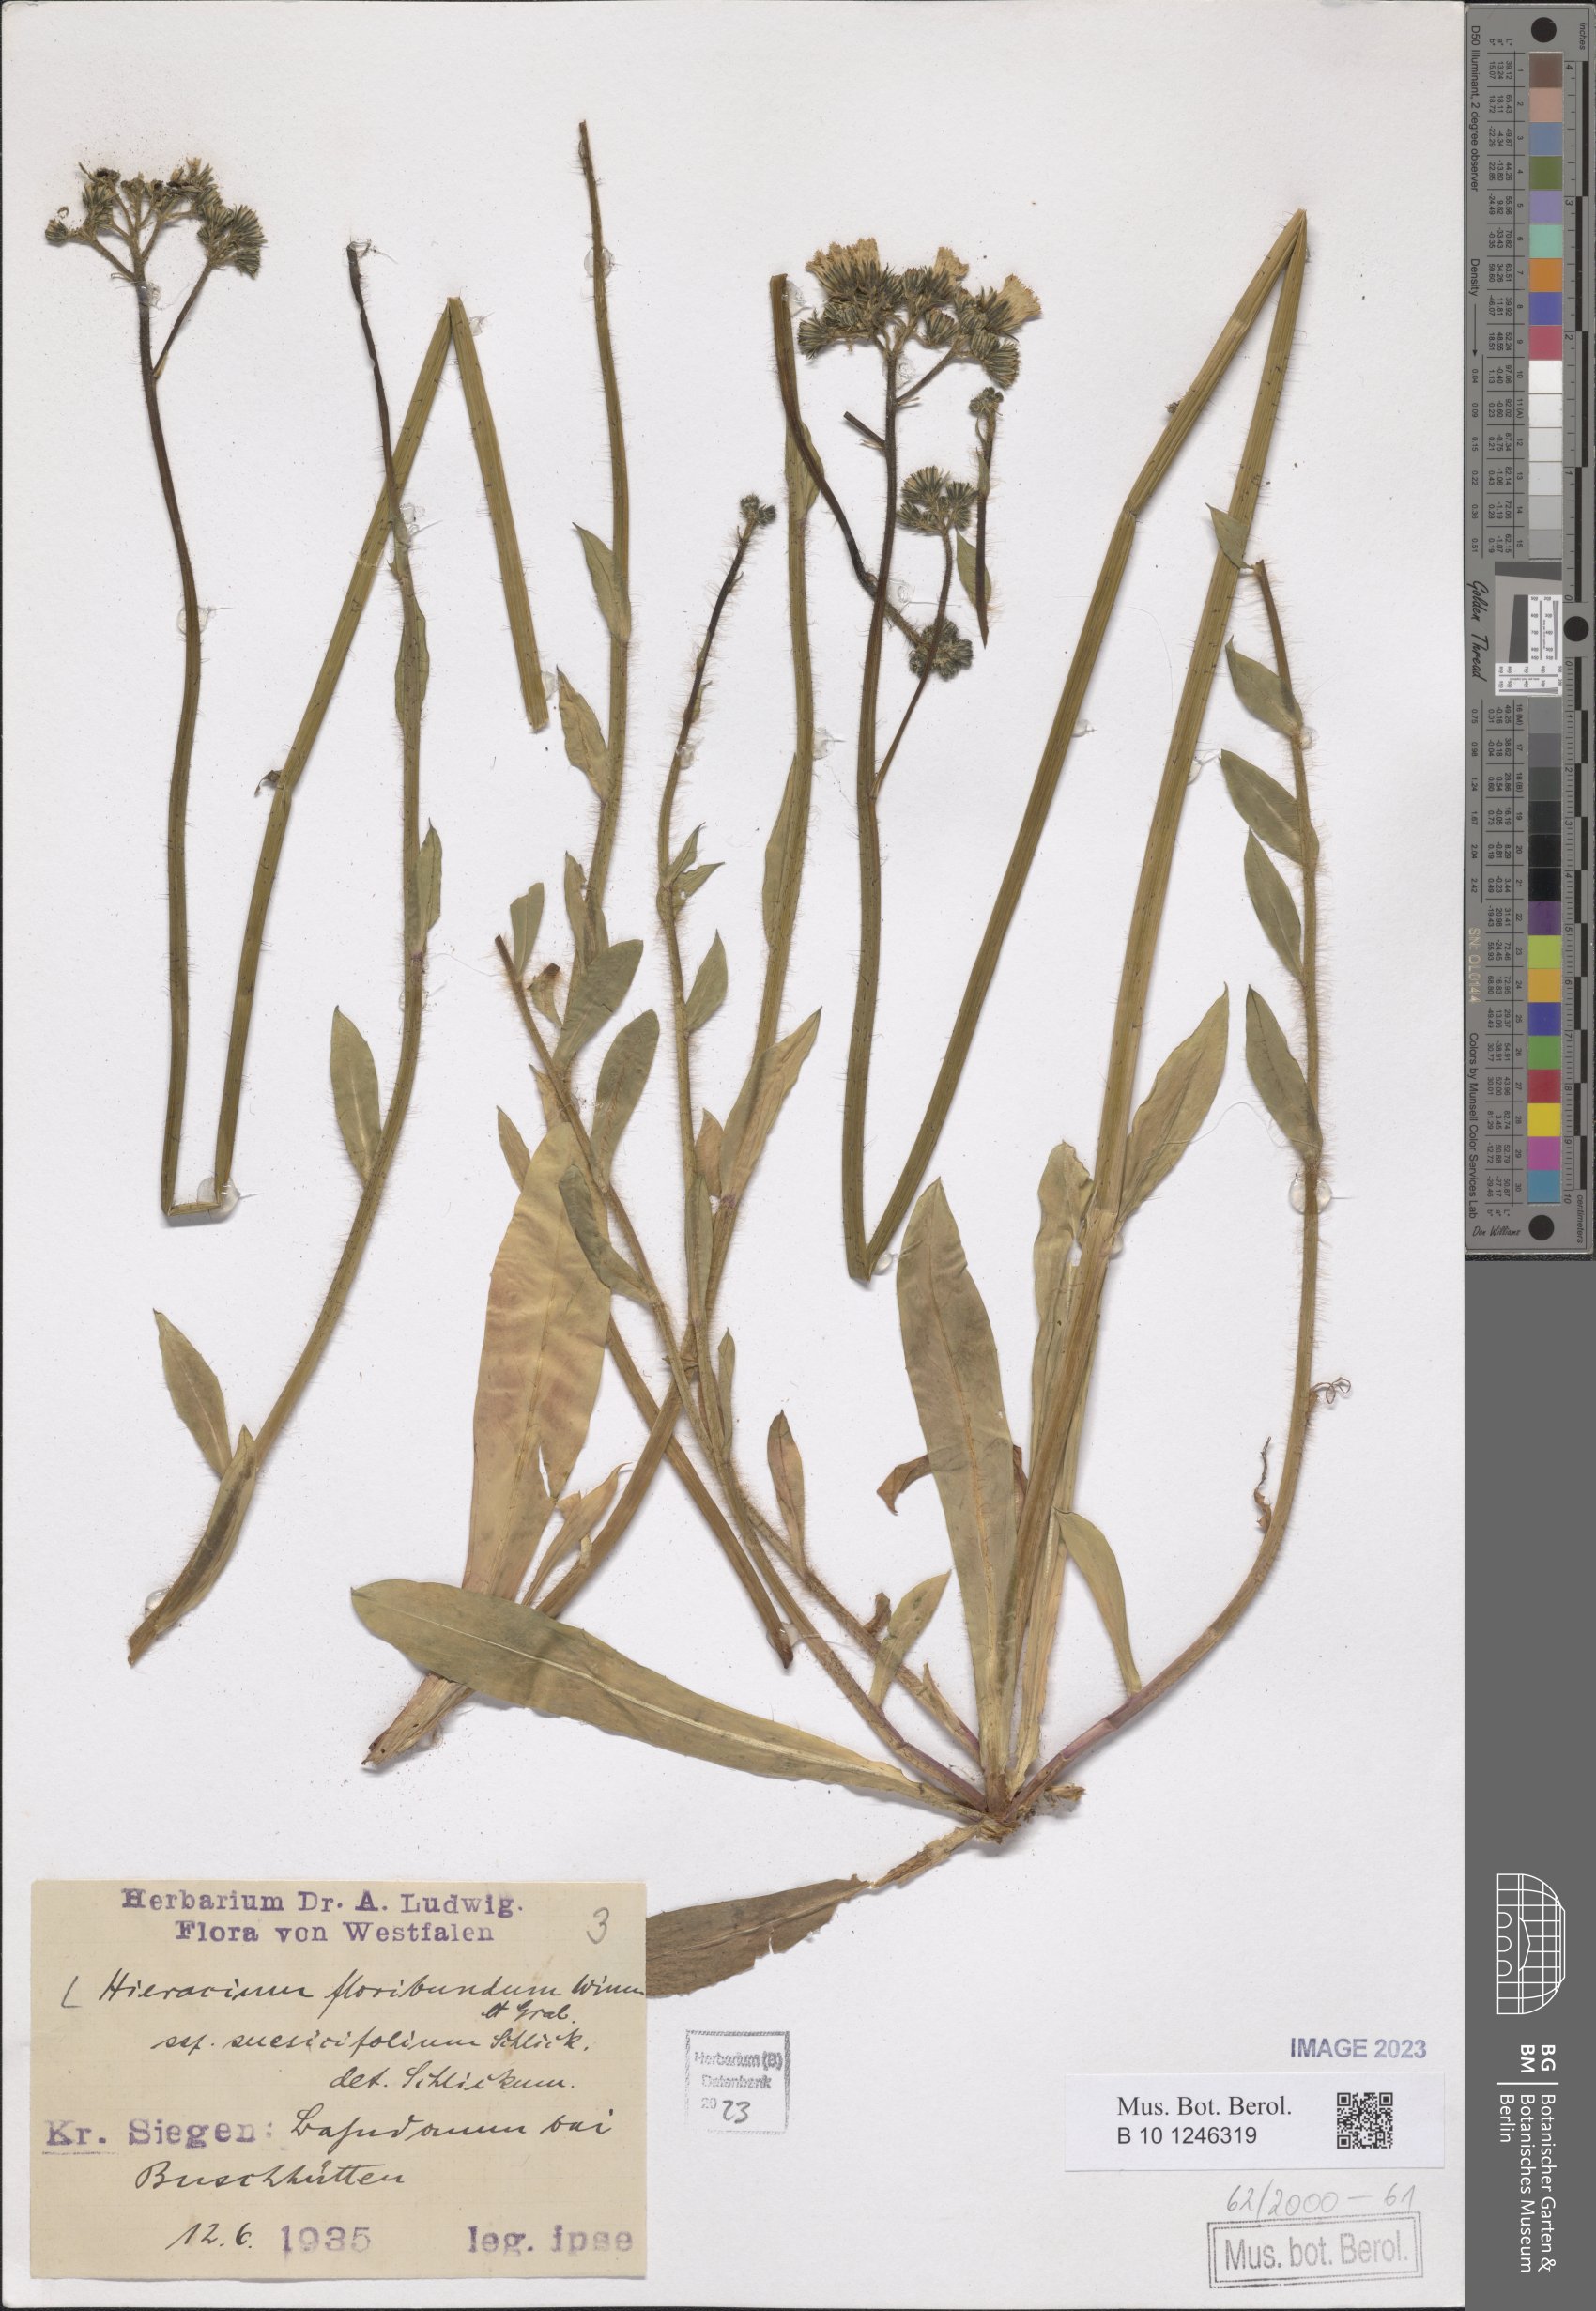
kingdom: Plantae
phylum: Tracheophyta
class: Magnoliopsida
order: Asterales
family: Asteraceae
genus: Hieracium
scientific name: Hieracium floribundum
